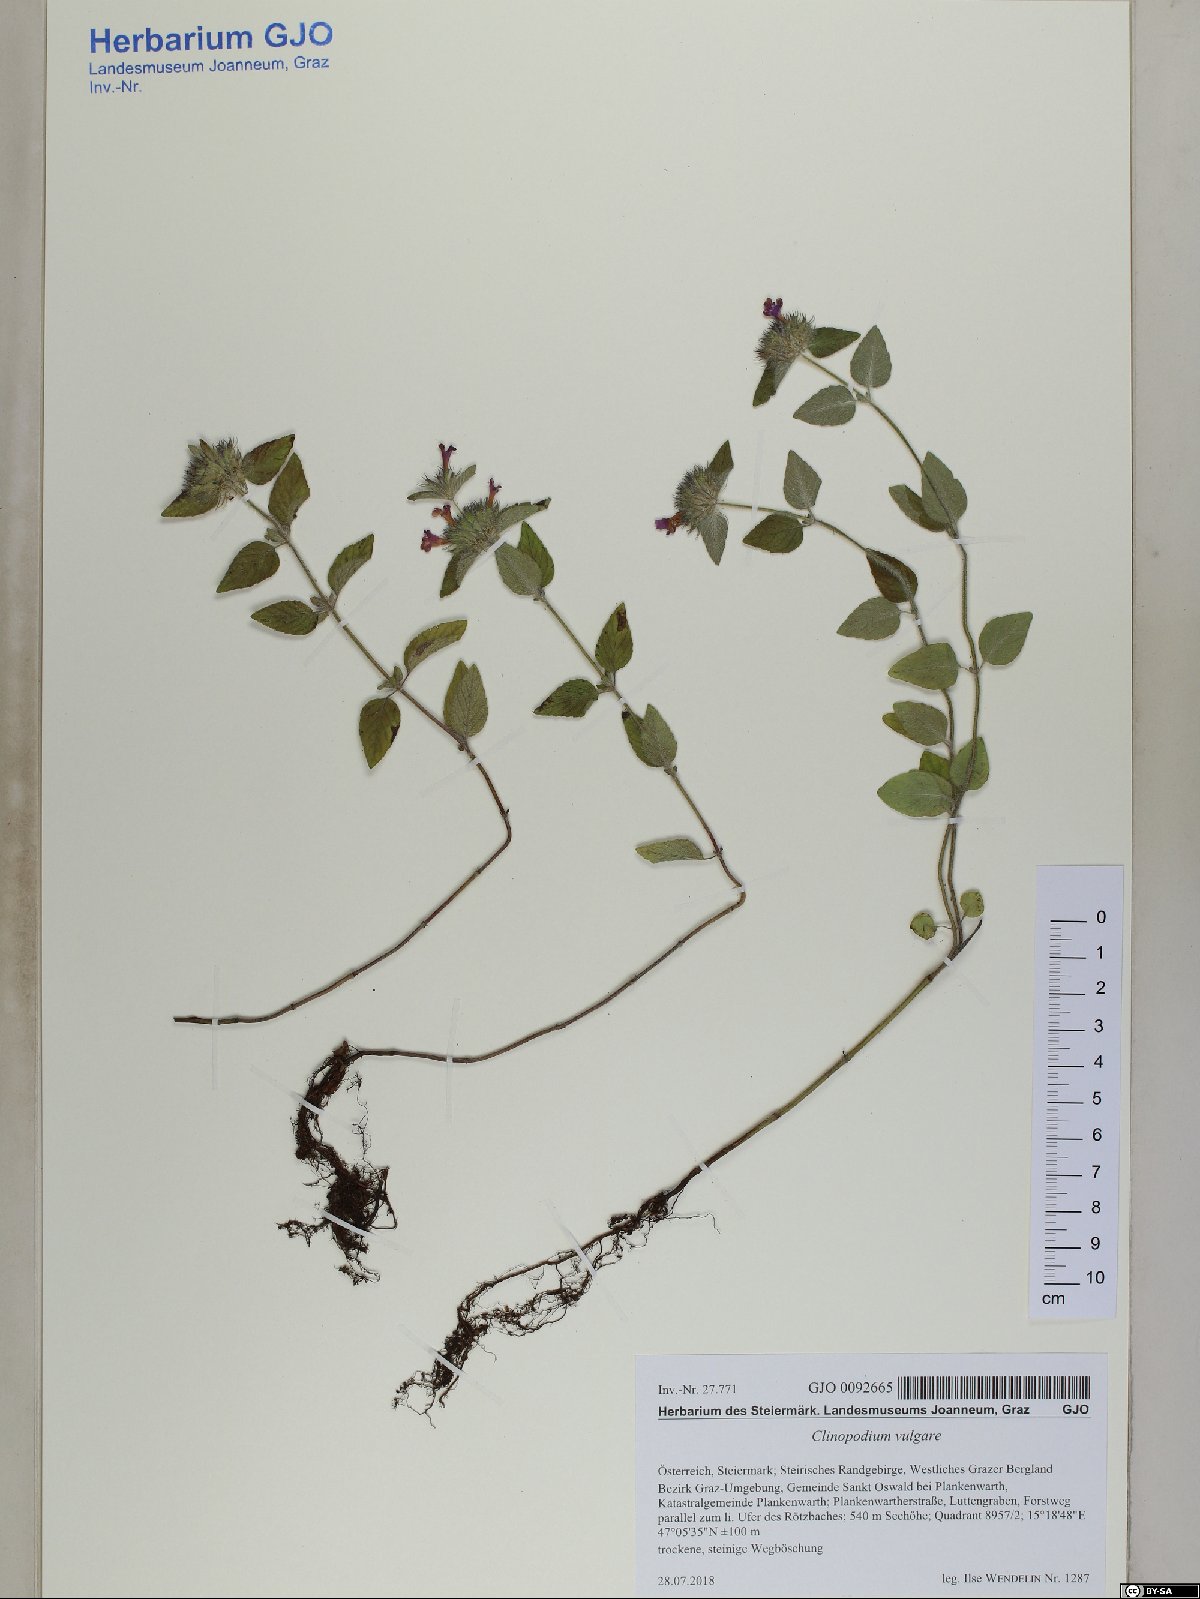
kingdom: Plantae
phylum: Tracheophyta
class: Magnoliopsida
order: Lamiales
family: Lamiaceae
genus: Clinopodium
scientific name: Clinopodium vulgare
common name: Wild basil
